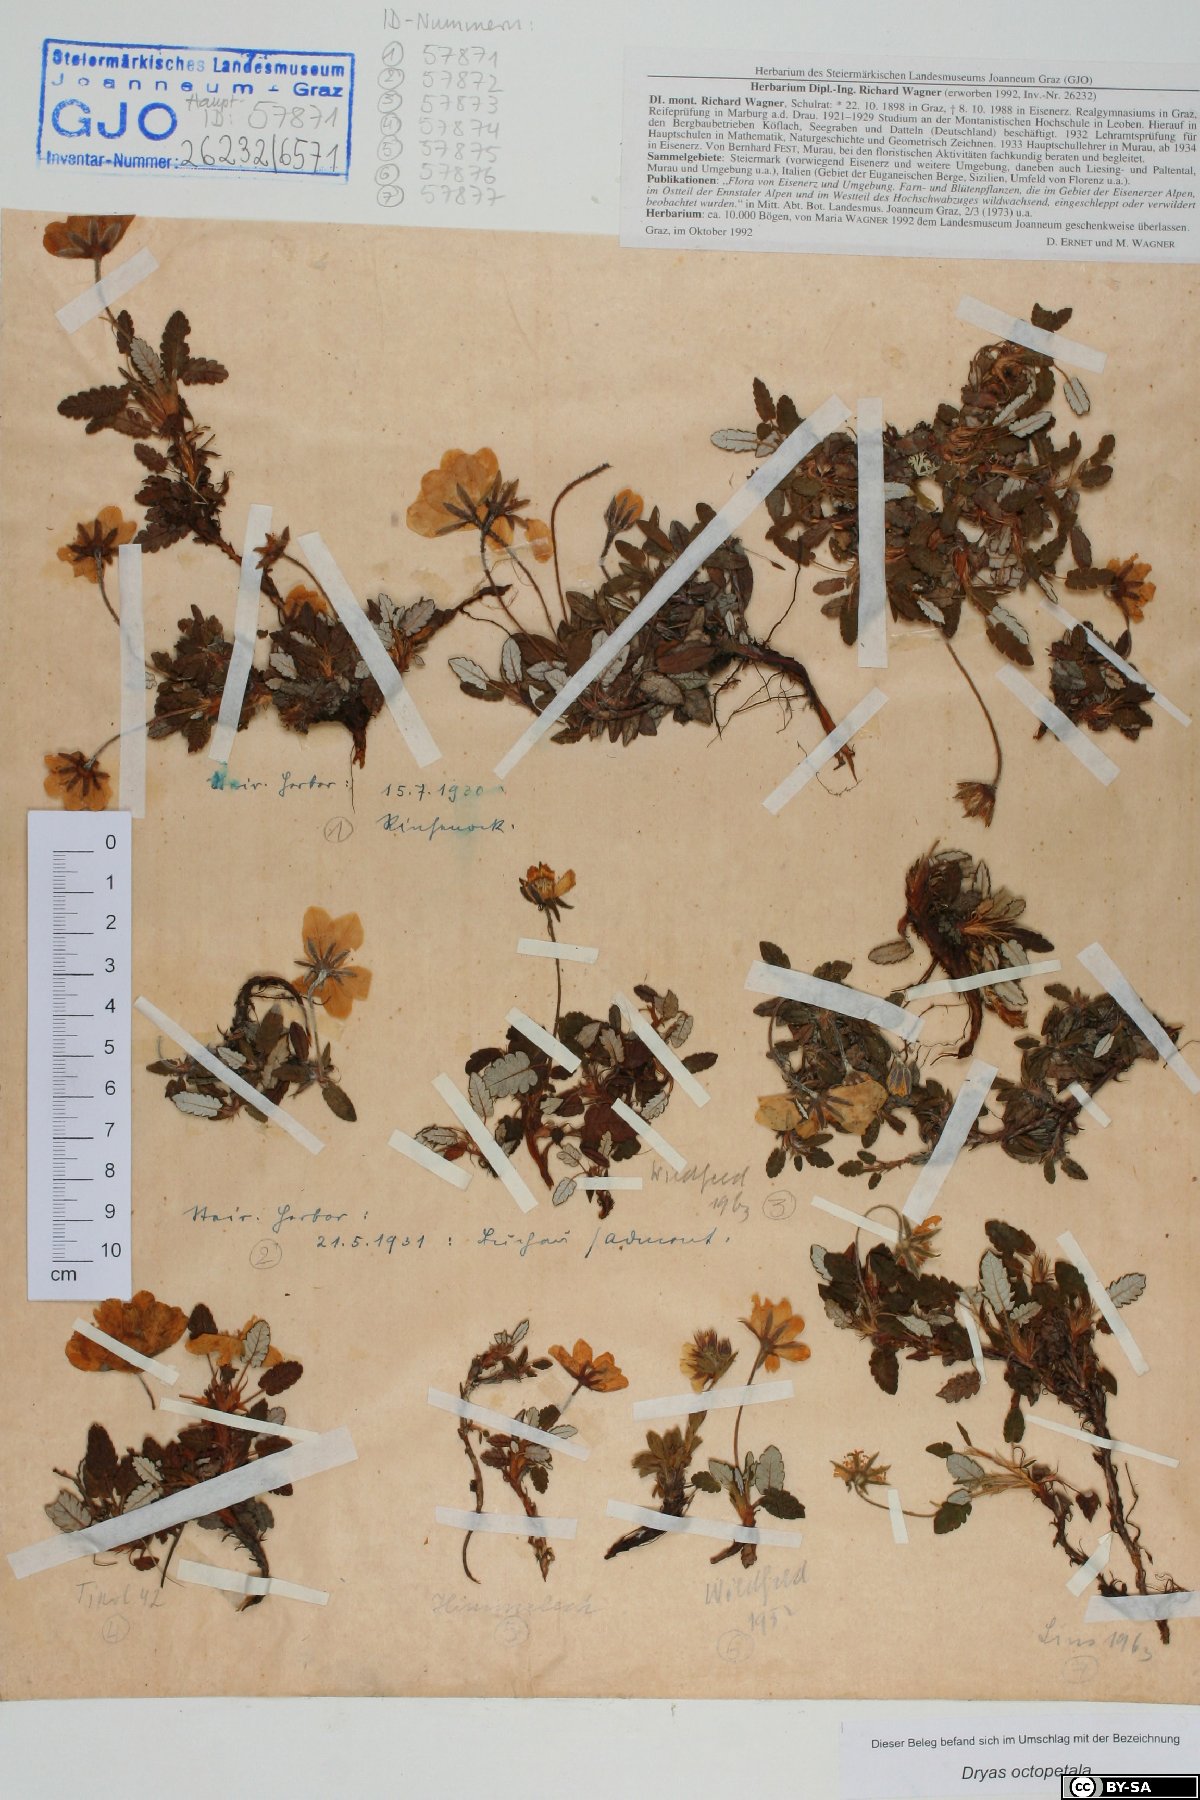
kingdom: Plantae
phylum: Tracheophyta
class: Magnoliopsida
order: Rosales
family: Rosaceae
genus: Dryas
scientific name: Dryas octopetala
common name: Eight-petal mountain-avens
